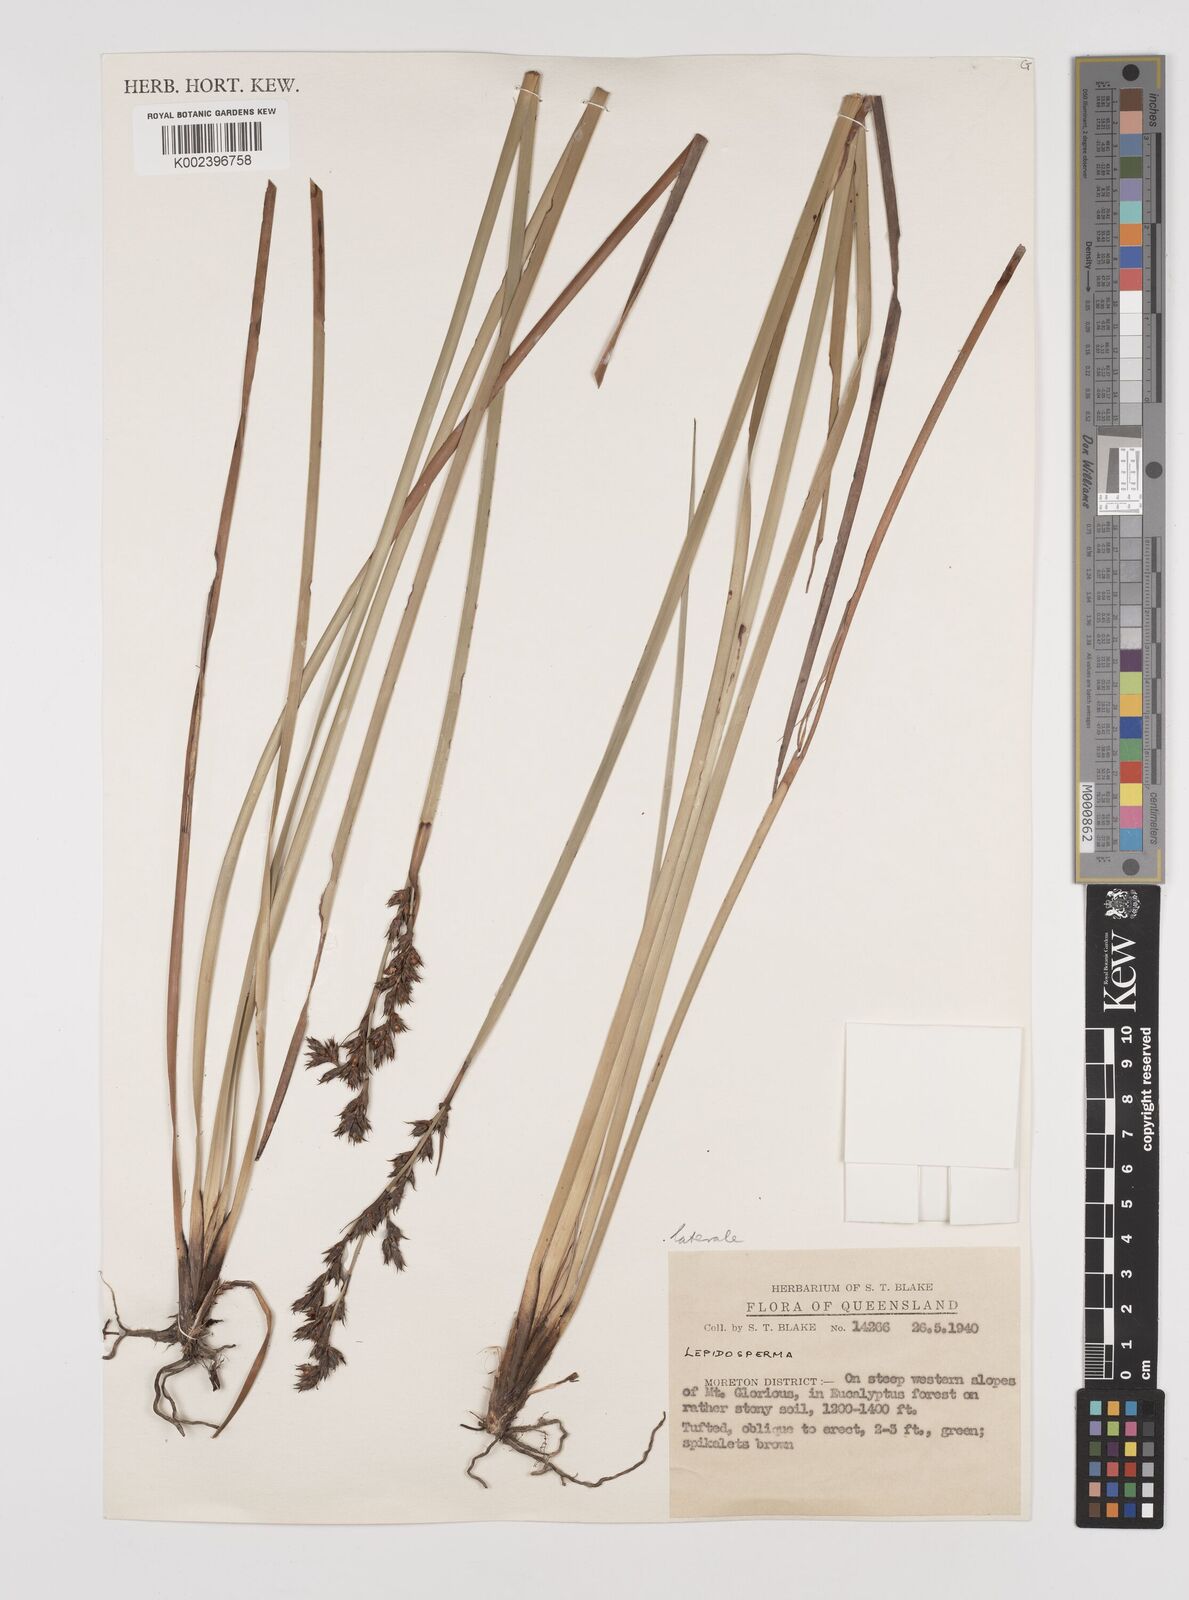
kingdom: Plantae
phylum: Tracheophyta
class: Liliopsida
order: Poales
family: Cyperaceae
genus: Lepidosperma
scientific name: Lepidosperma laterale
